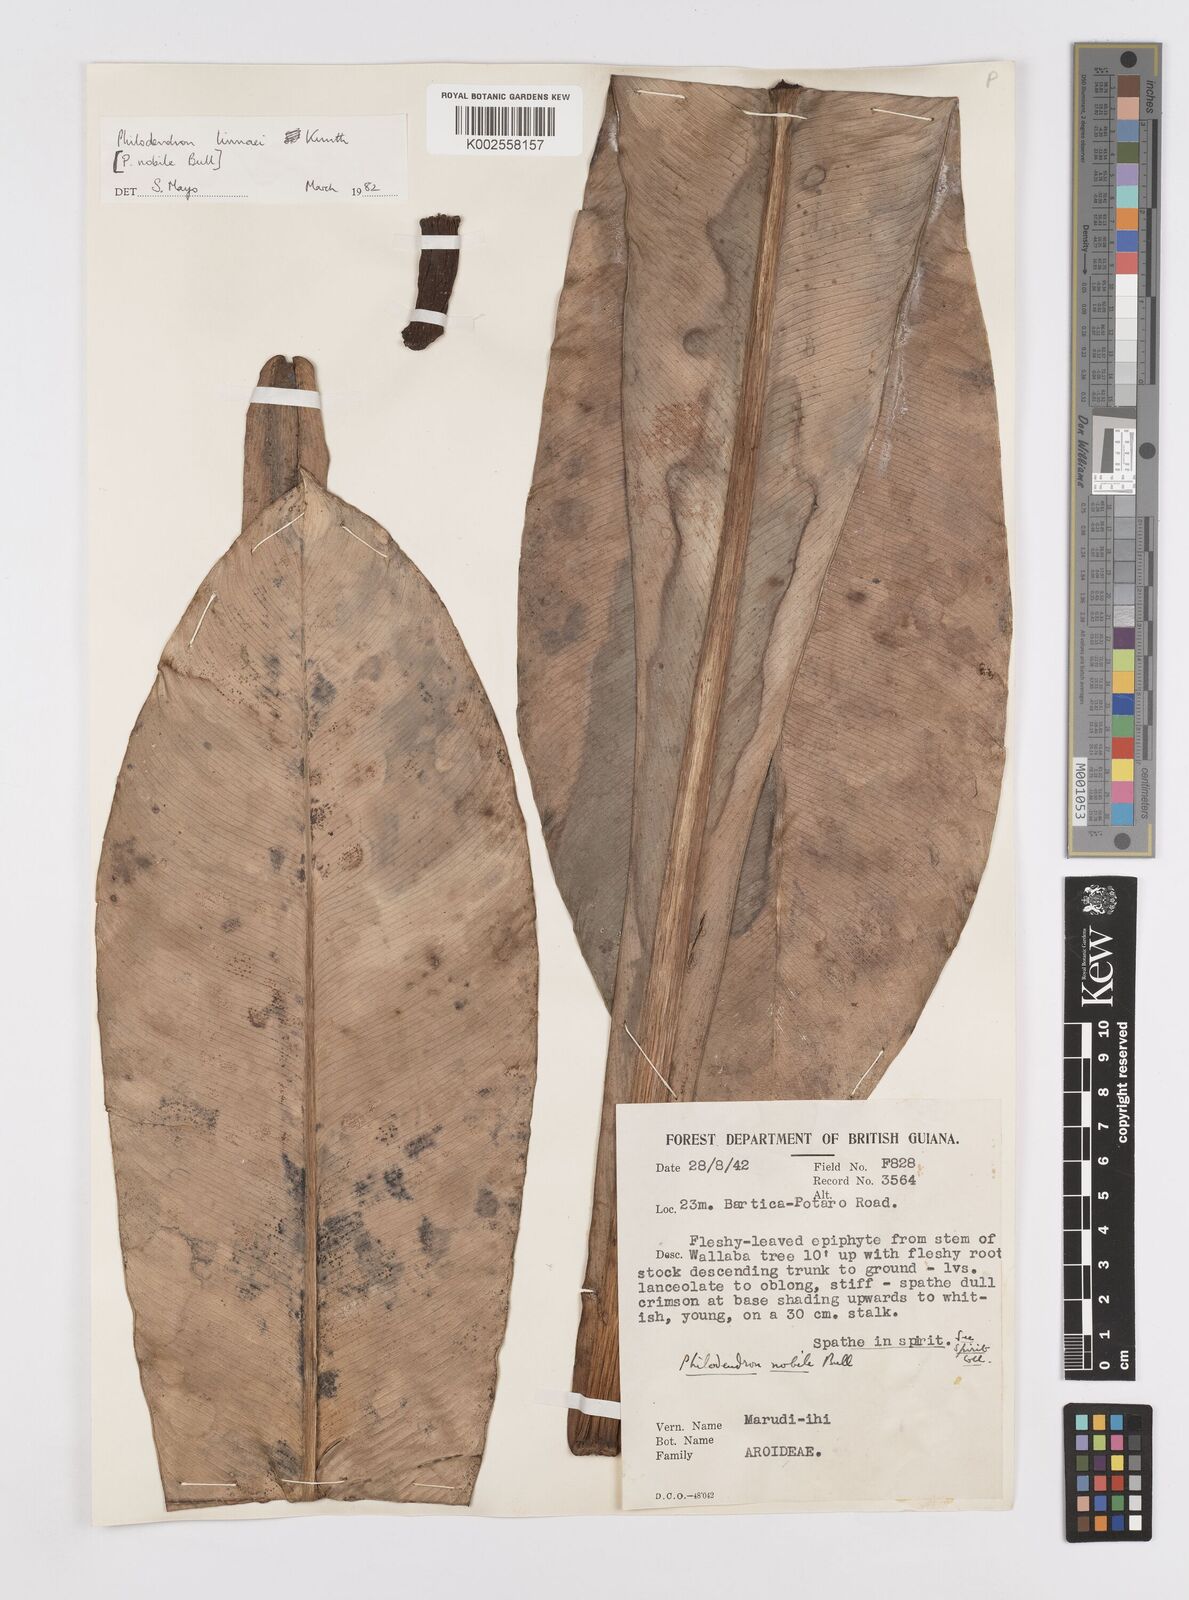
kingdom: Plantae
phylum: Tracheophyta
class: Liliopsida
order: Alismatales
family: Araceae
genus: Philodendron
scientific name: Philodendron linnaei
